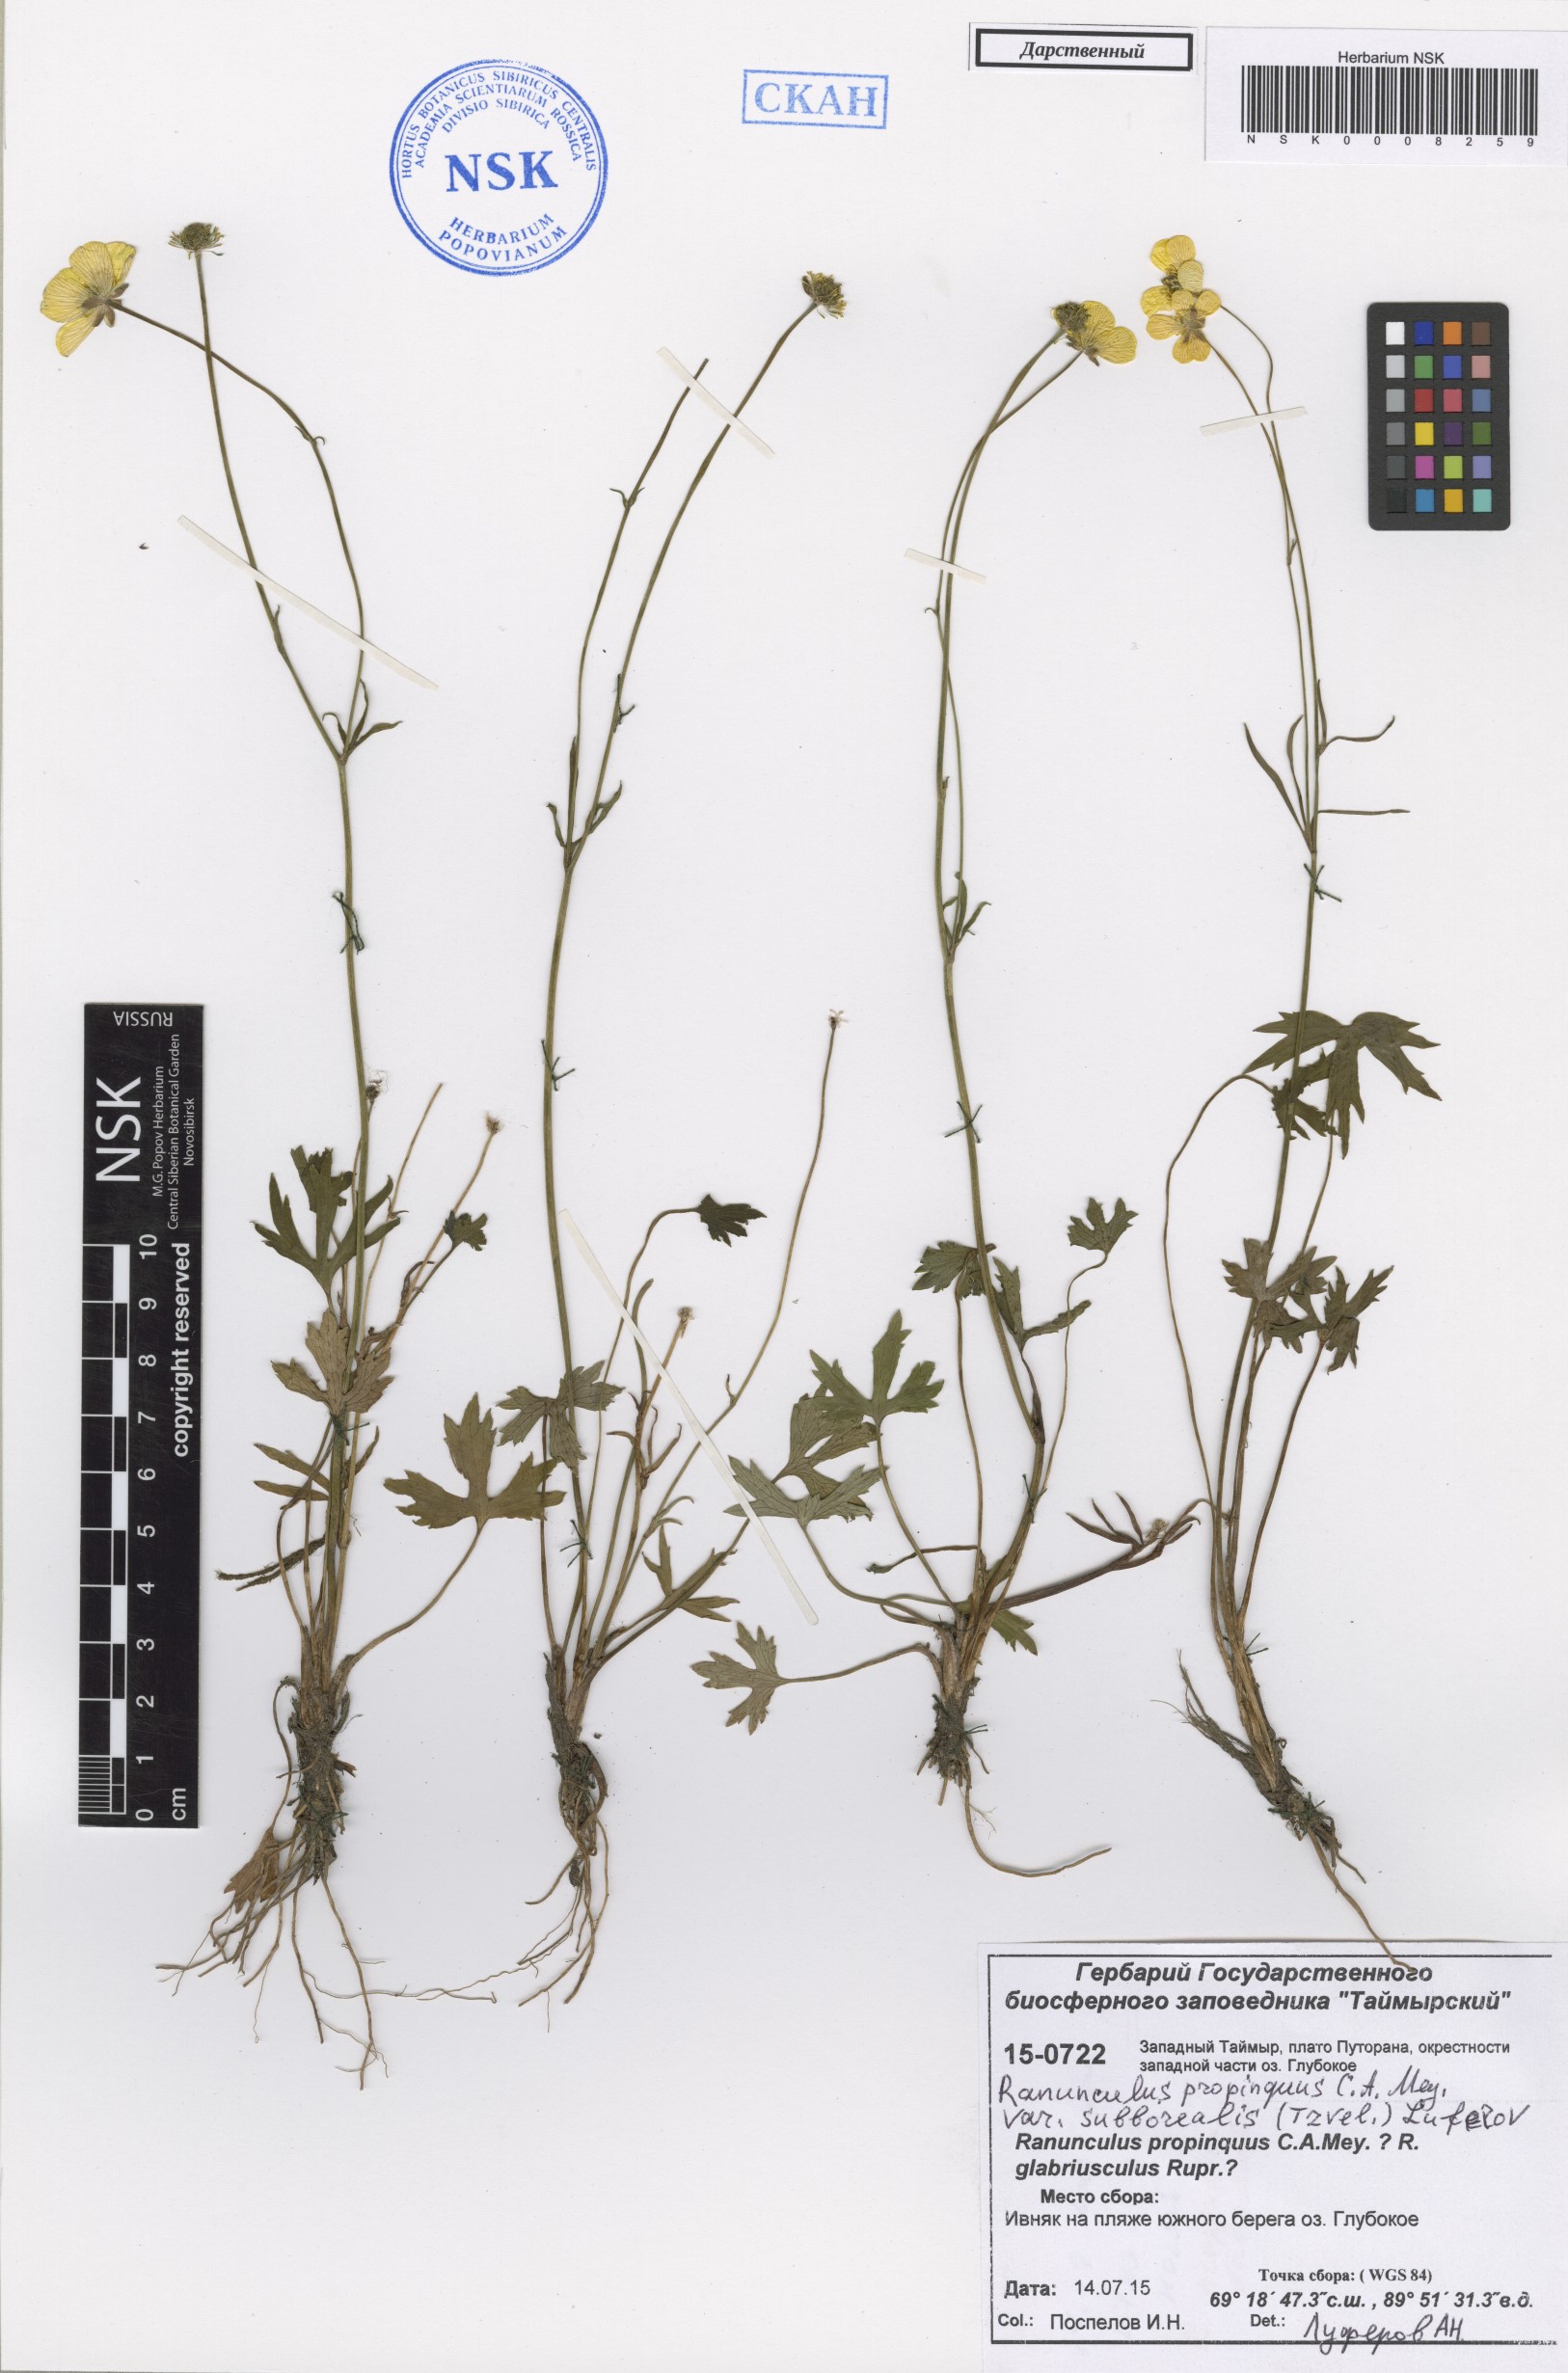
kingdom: Plantae
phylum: Tracheophyta
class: Magnoliopsida
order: Ranunculales
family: Ranunculaceae
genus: Ranunculus
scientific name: Ranunculus propinquus
